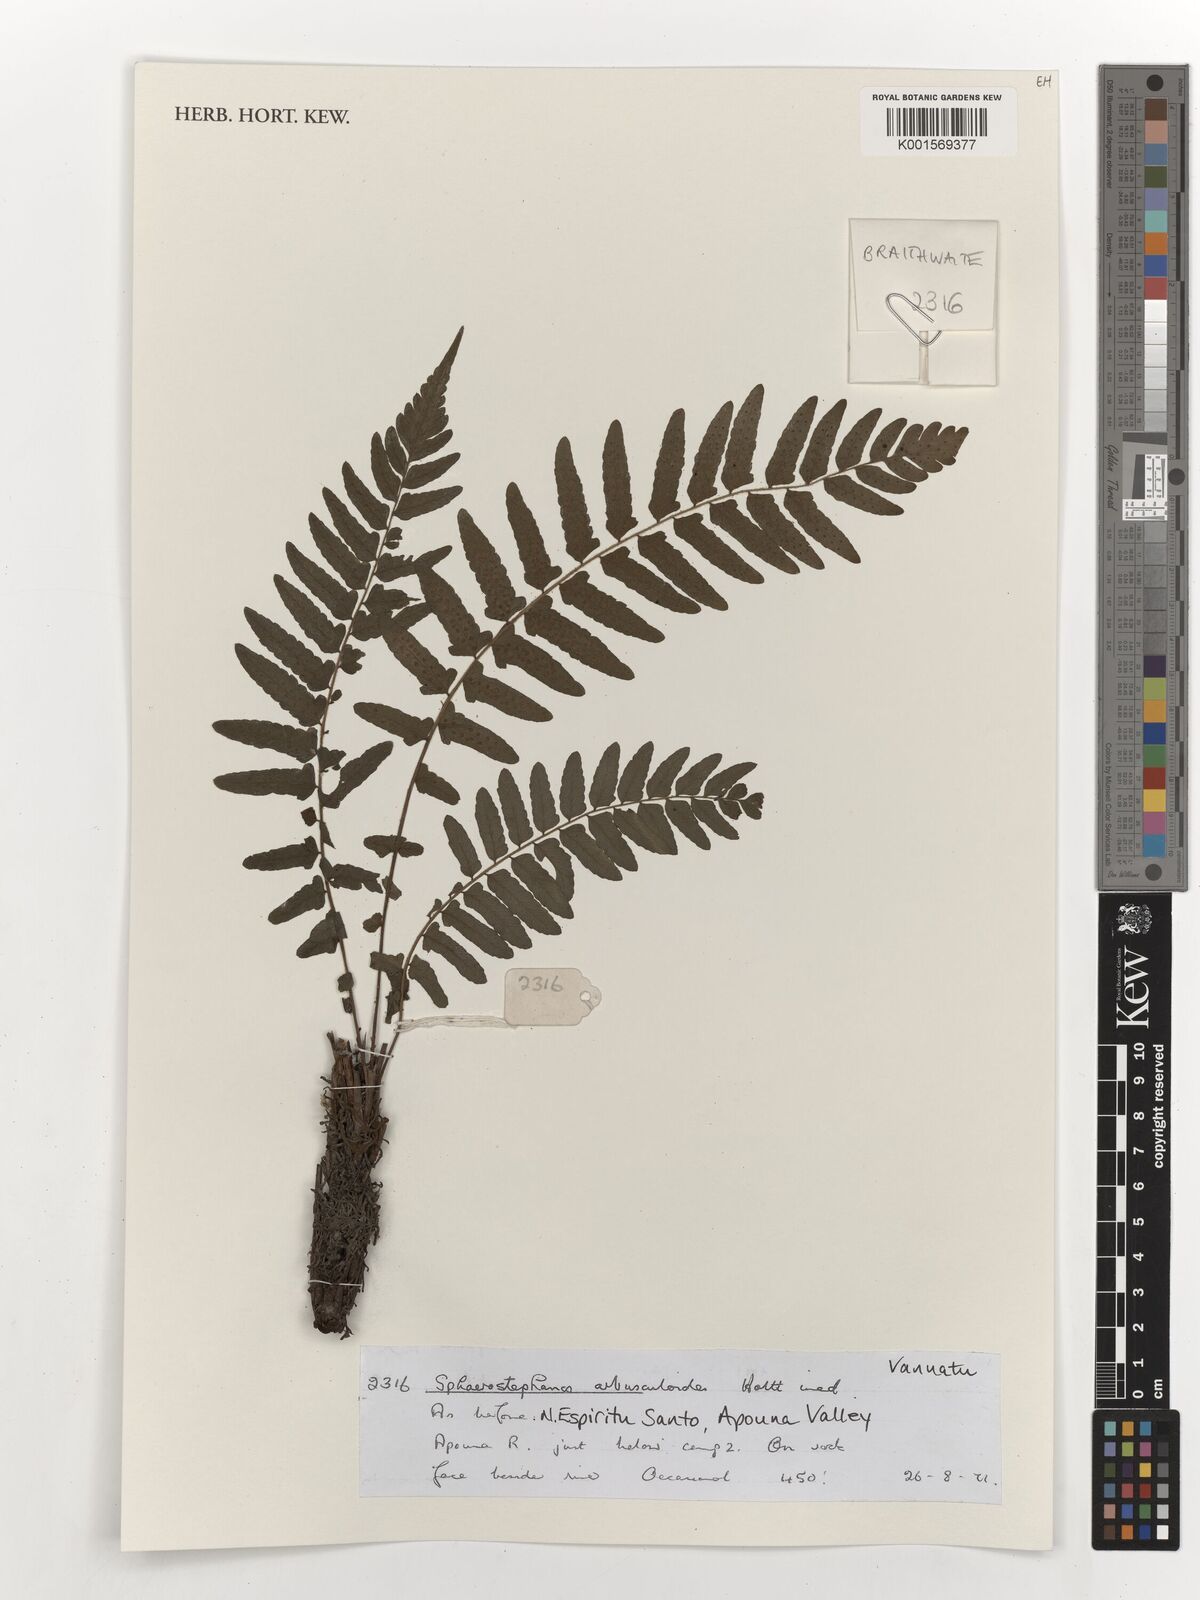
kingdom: Plantae
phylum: Tracheophyta
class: Polypodiopsida
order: Polypodiales
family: Thelypteridaceae
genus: Sphaerostephanos
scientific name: Sphaerostephanos
